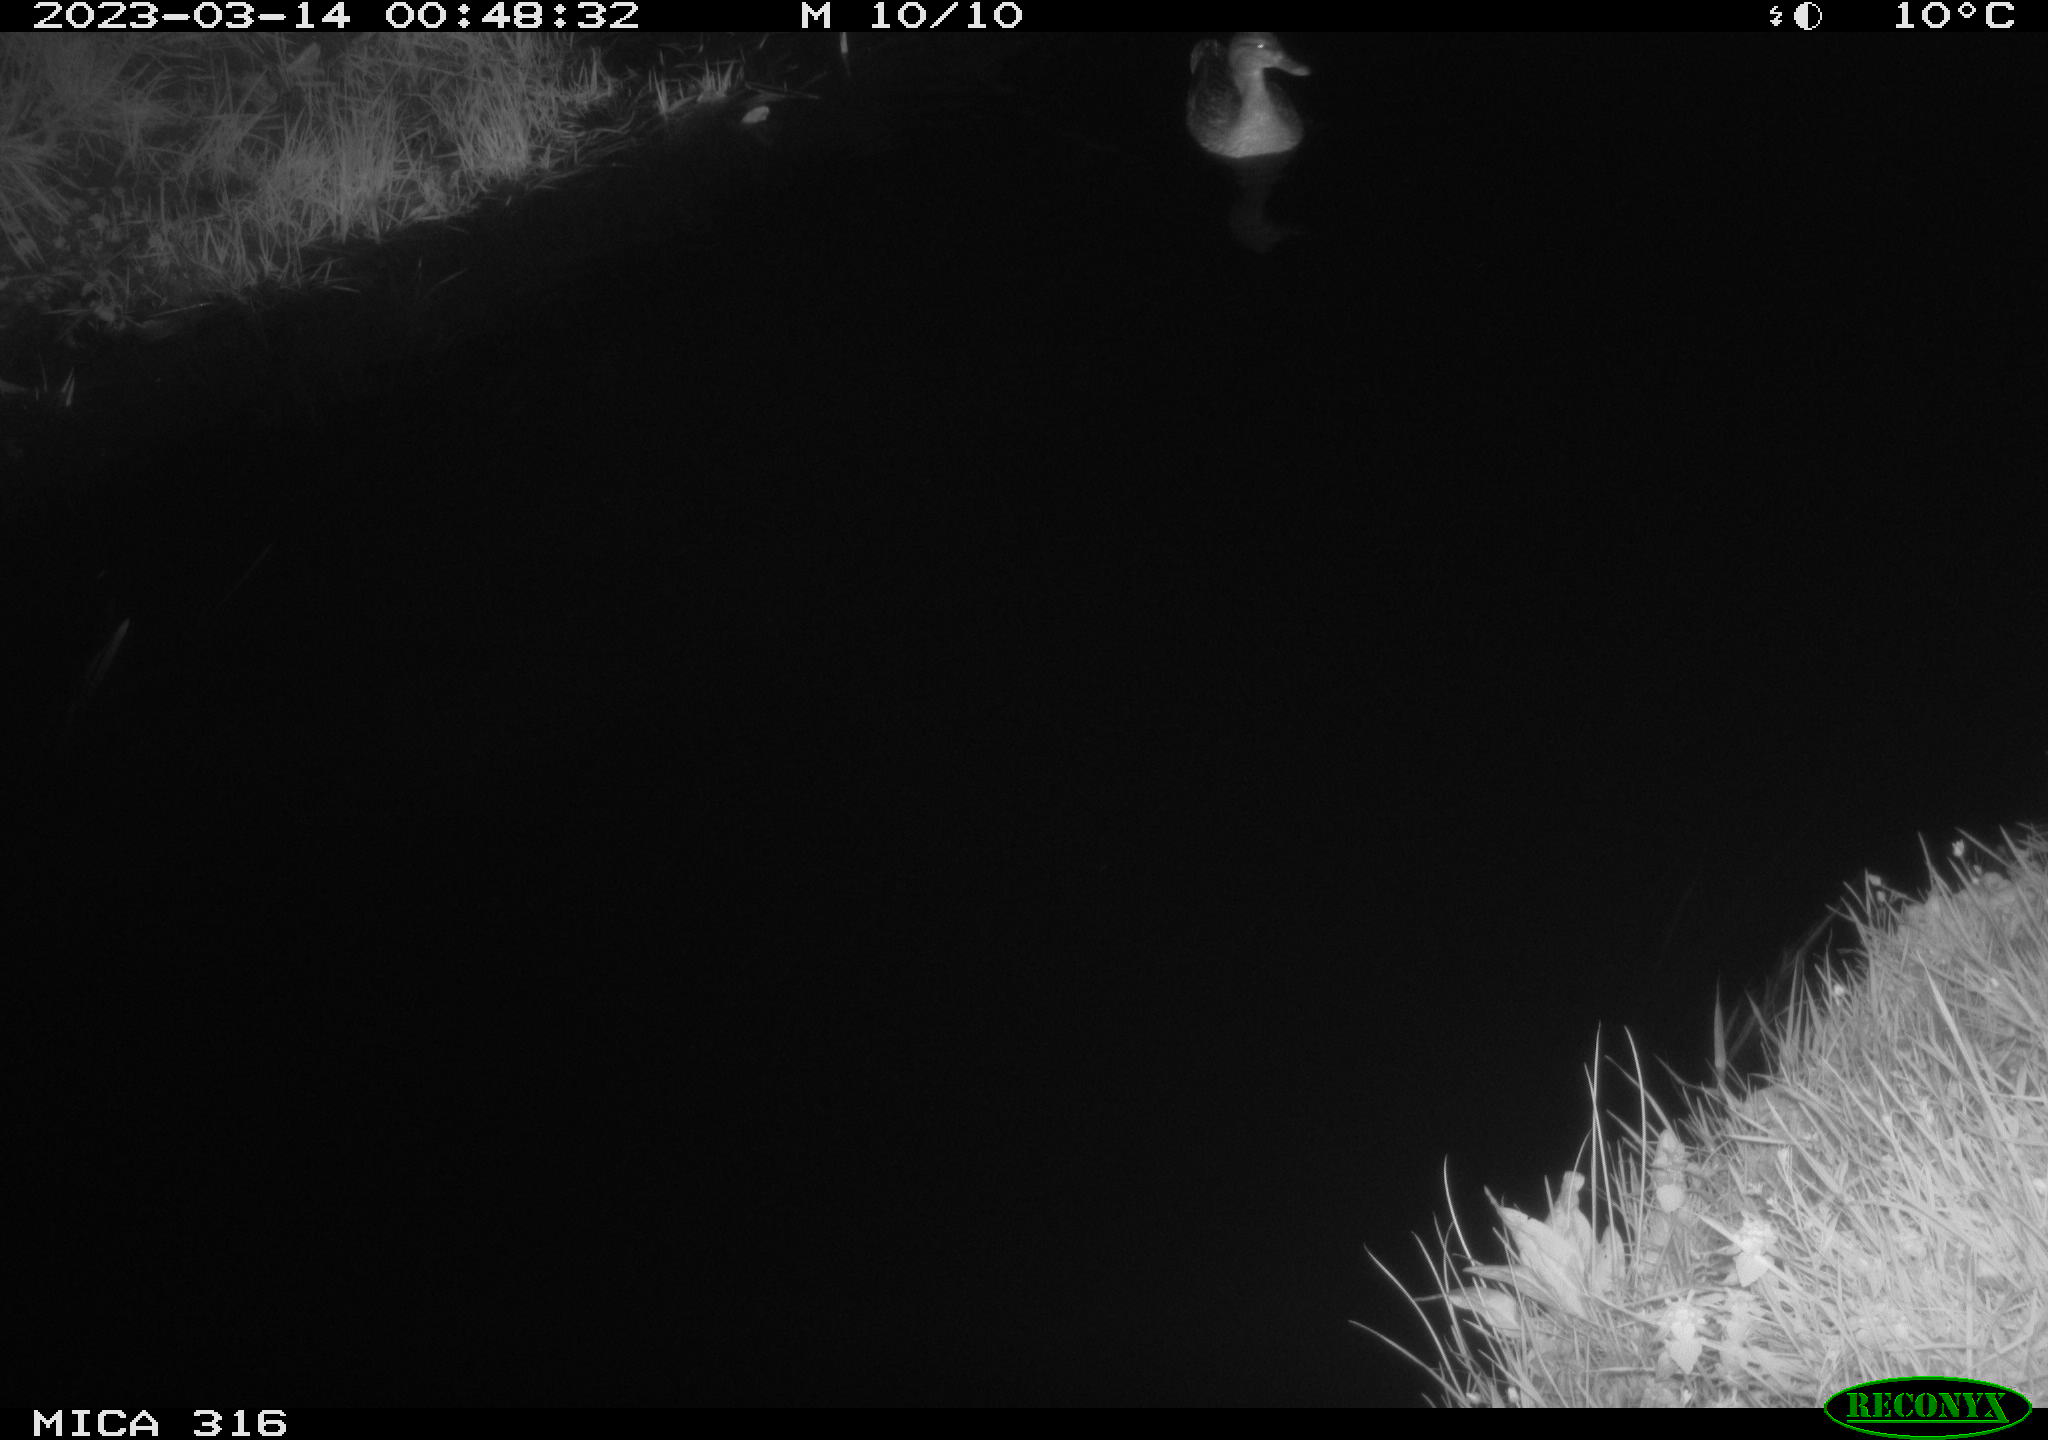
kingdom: Animalia
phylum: Chordata
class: Aves
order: Anseriformes
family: Anatidae
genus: Anas
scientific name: Anas
